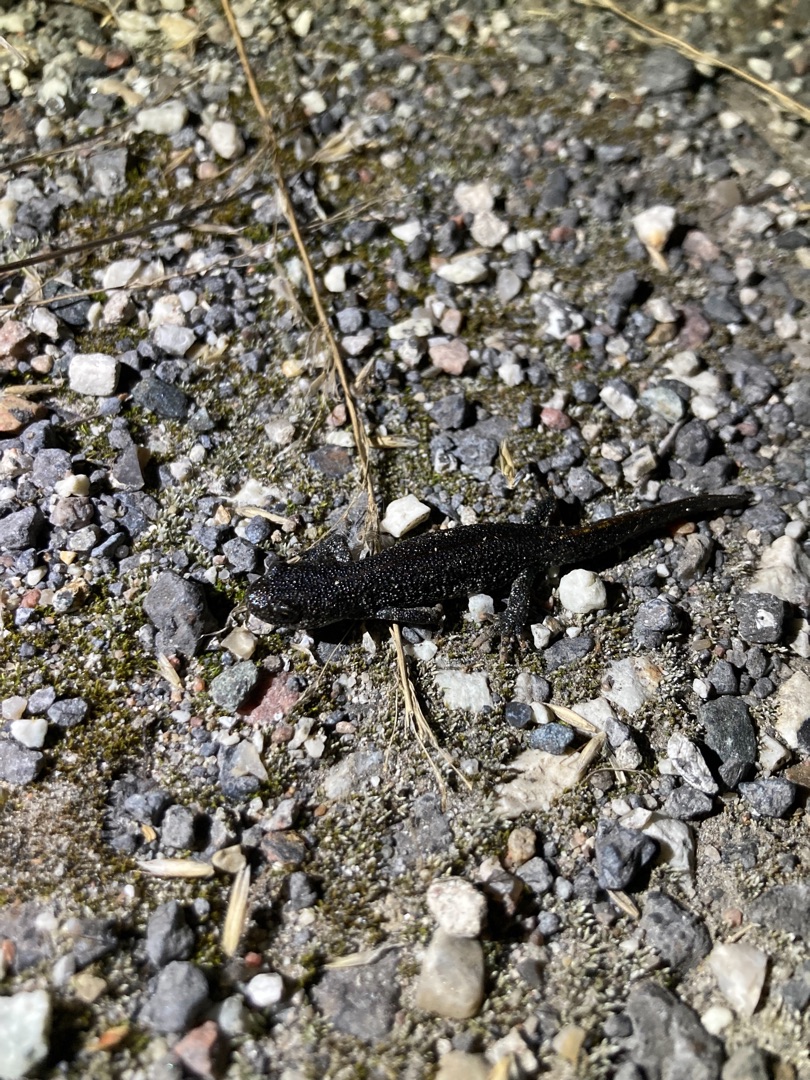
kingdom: Animalia
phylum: Chordata
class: Amphibia
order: Caudata
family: Salamandridae
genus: Triturus
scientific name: Triturus cristatus
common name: Stor vandsalamander
